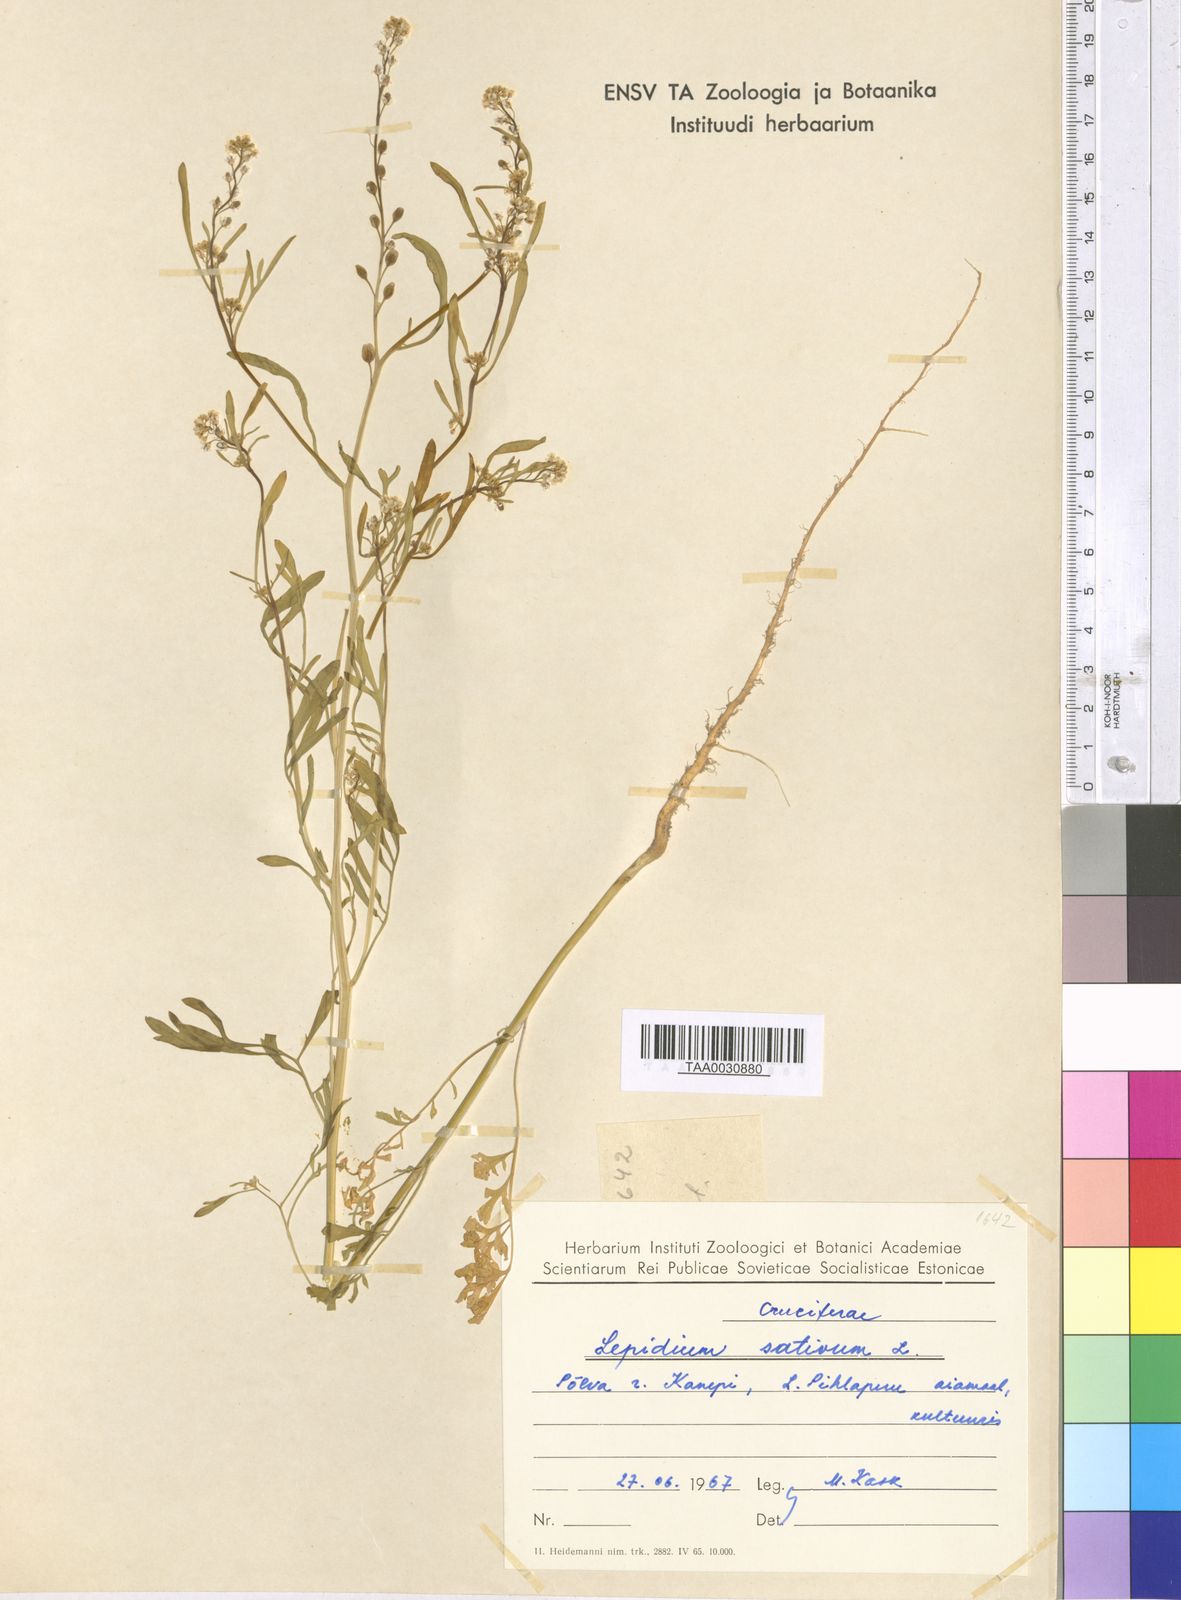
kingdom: Plantae
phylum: Tracheophyta
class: Magnoliopsida
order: Brassicales
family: Brassicaceae
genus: Lepidium
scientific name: Lepidium sativum
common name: Garden cress
